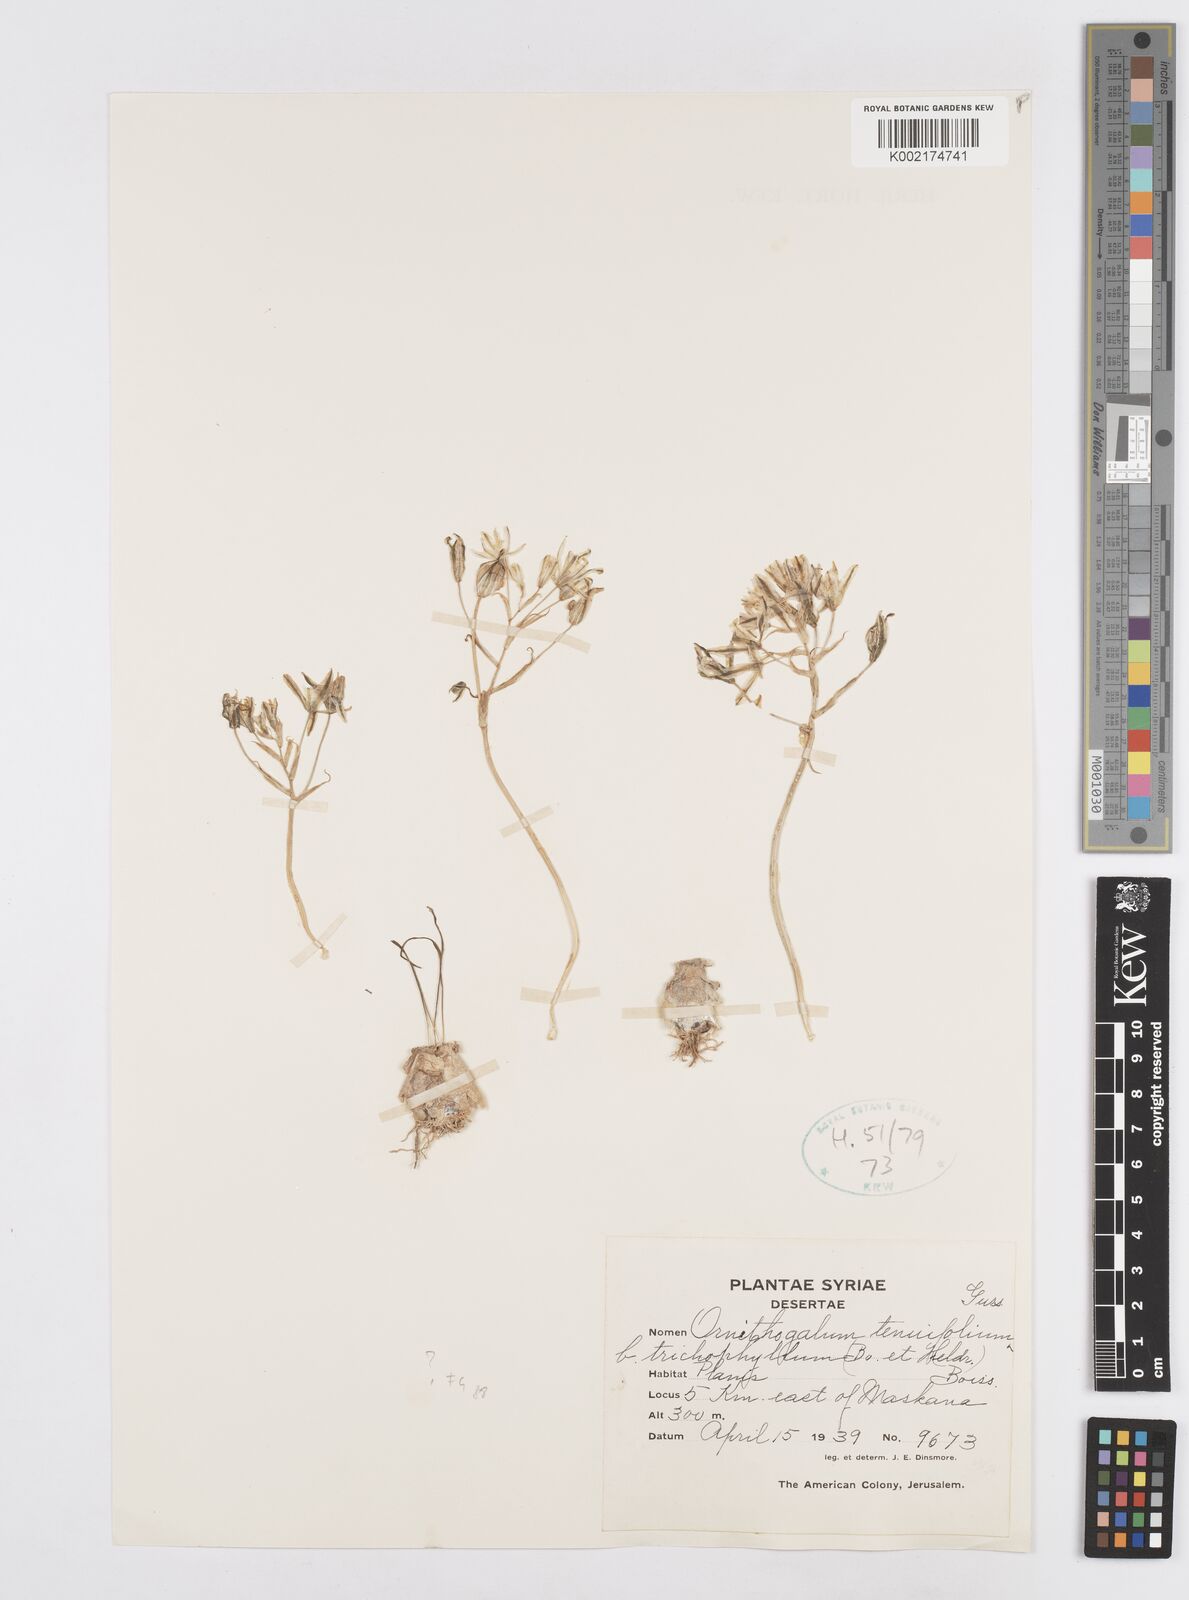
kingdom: Plantae
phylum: Tracheophyta
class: Liliopsida
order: Asparagales
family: Asparagaceae
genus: Ornithogalum
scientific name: Ornithogalum
